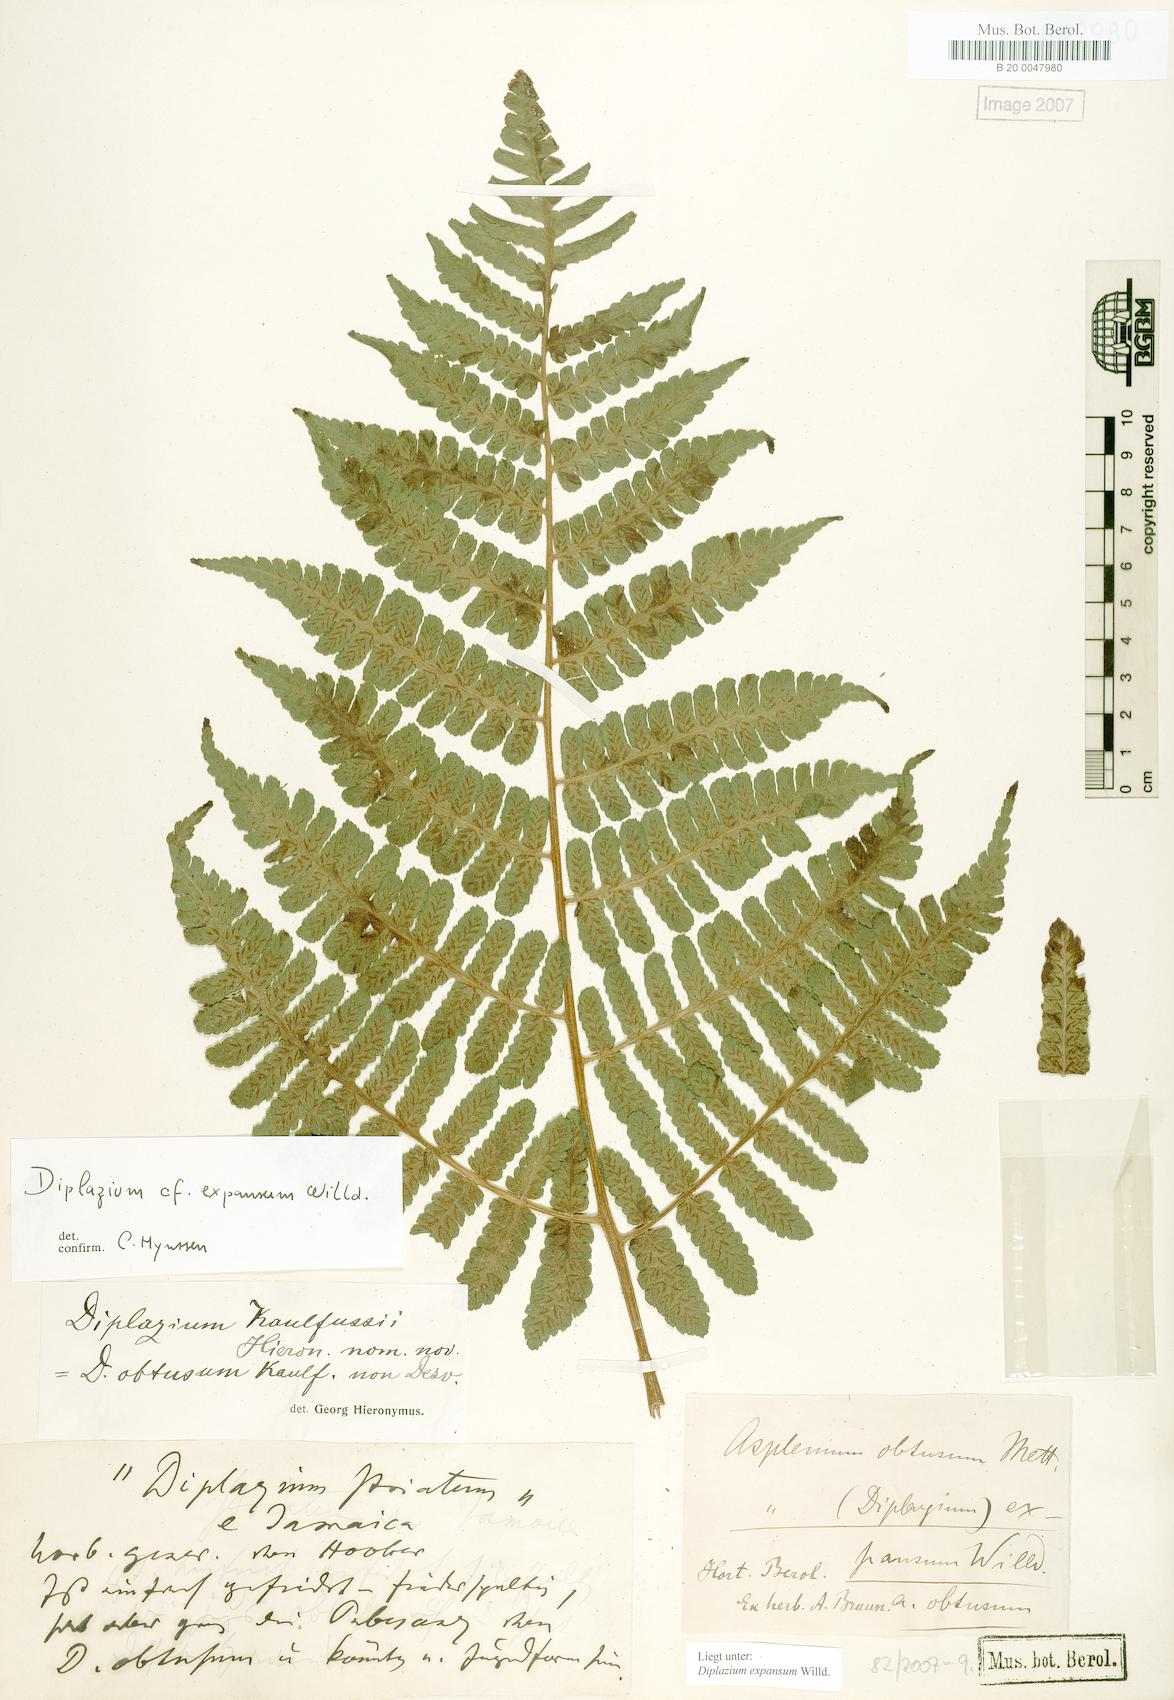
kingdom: Plantae
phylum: Tracheophyta
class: Polypodiopsida
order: Polypodiales
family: Athyriaceae
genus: Diplazium
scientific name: Diplazium expansum
